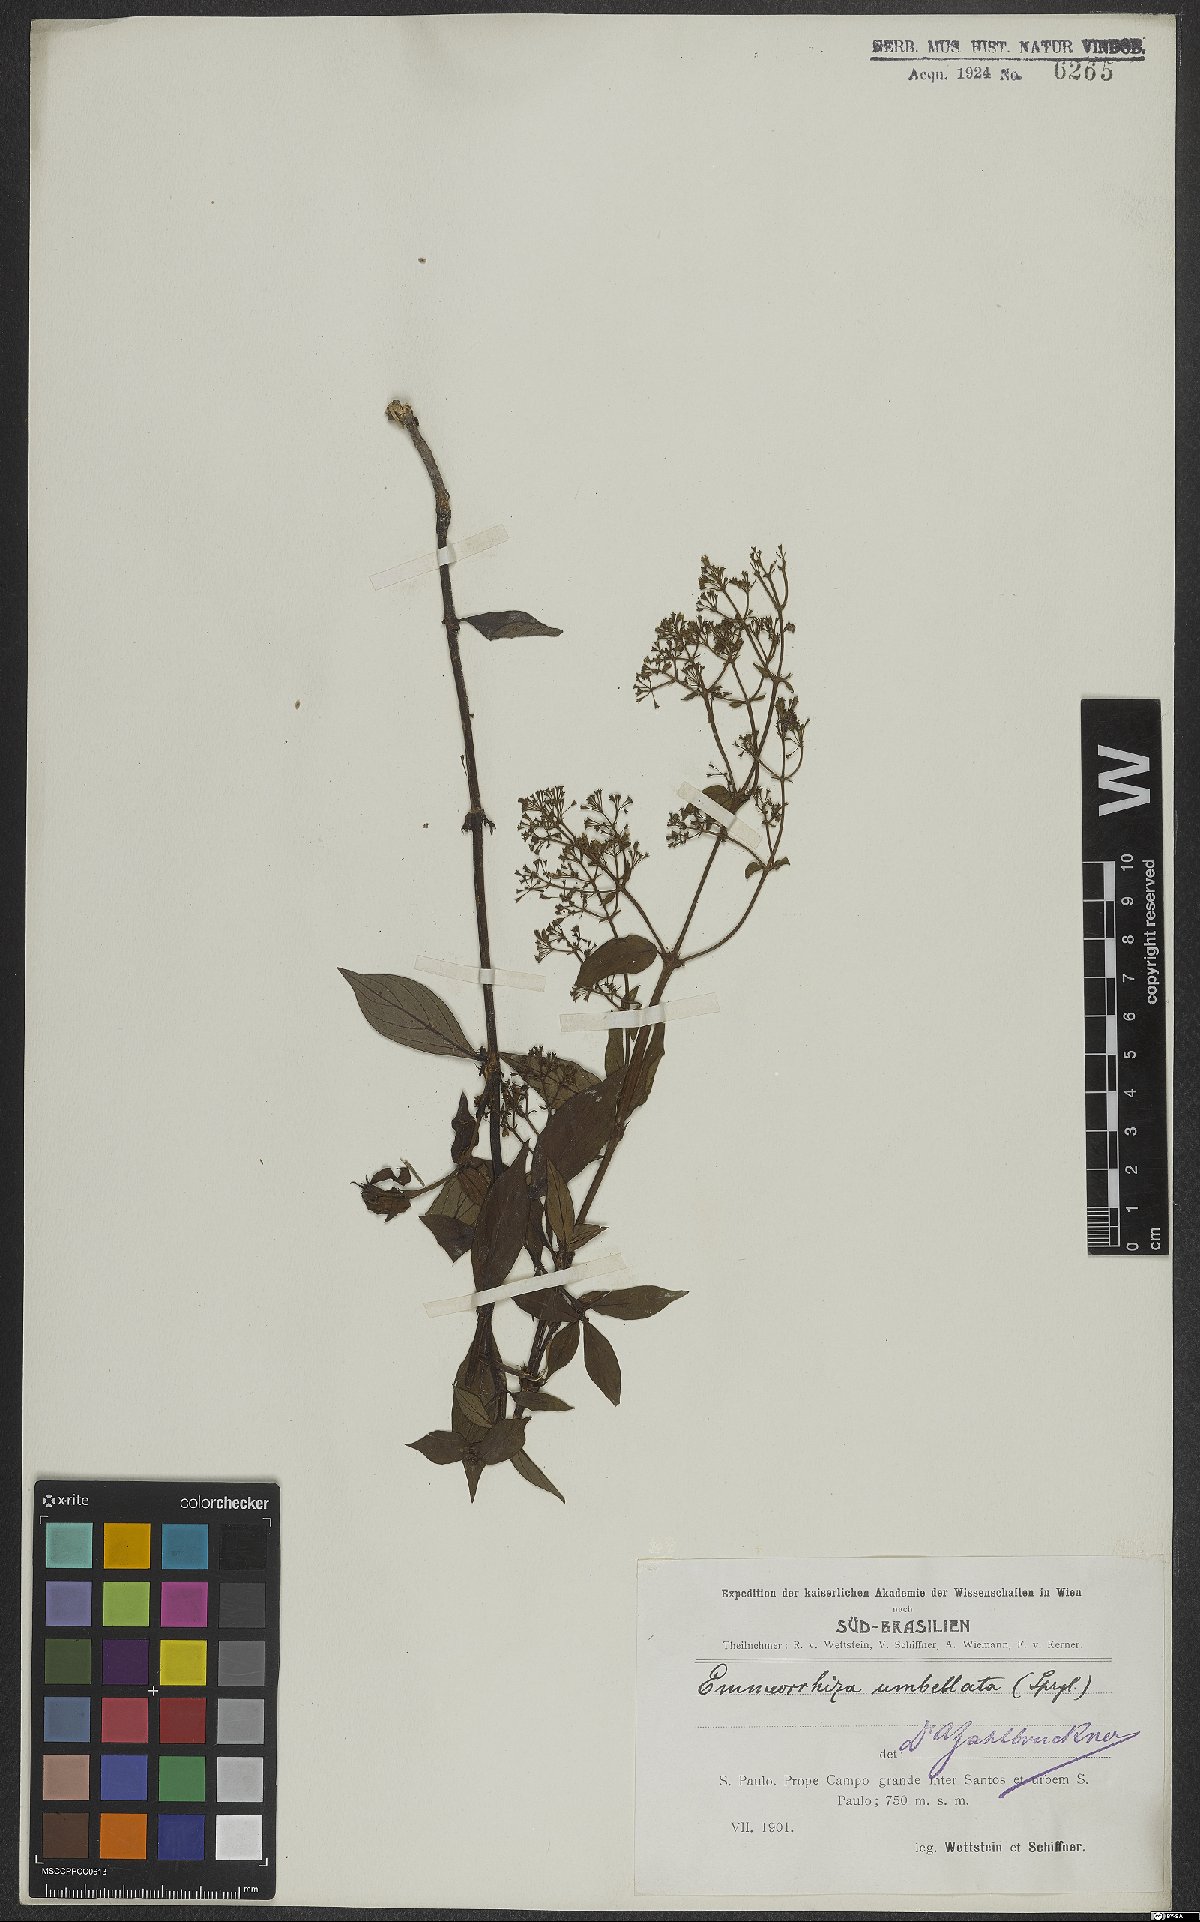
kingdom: Plantae
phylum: Tracheophyta
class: Magnoliopsida
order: Gentianales
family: Rubiaceae
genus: Emmeorhiza
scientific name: Emmeorhiza umbellata
